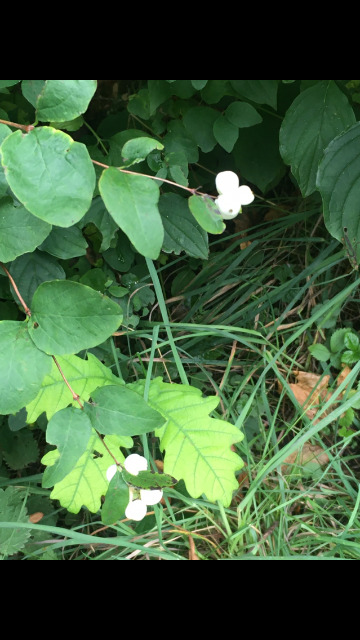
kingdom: Plantae
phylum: Tracheophyta
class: Magnoliopsida
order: Dipsacales
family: Caprifoliaceae
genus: Symphoricarpos
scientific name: Symphoricarpos albus
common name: Almindelig snebær
